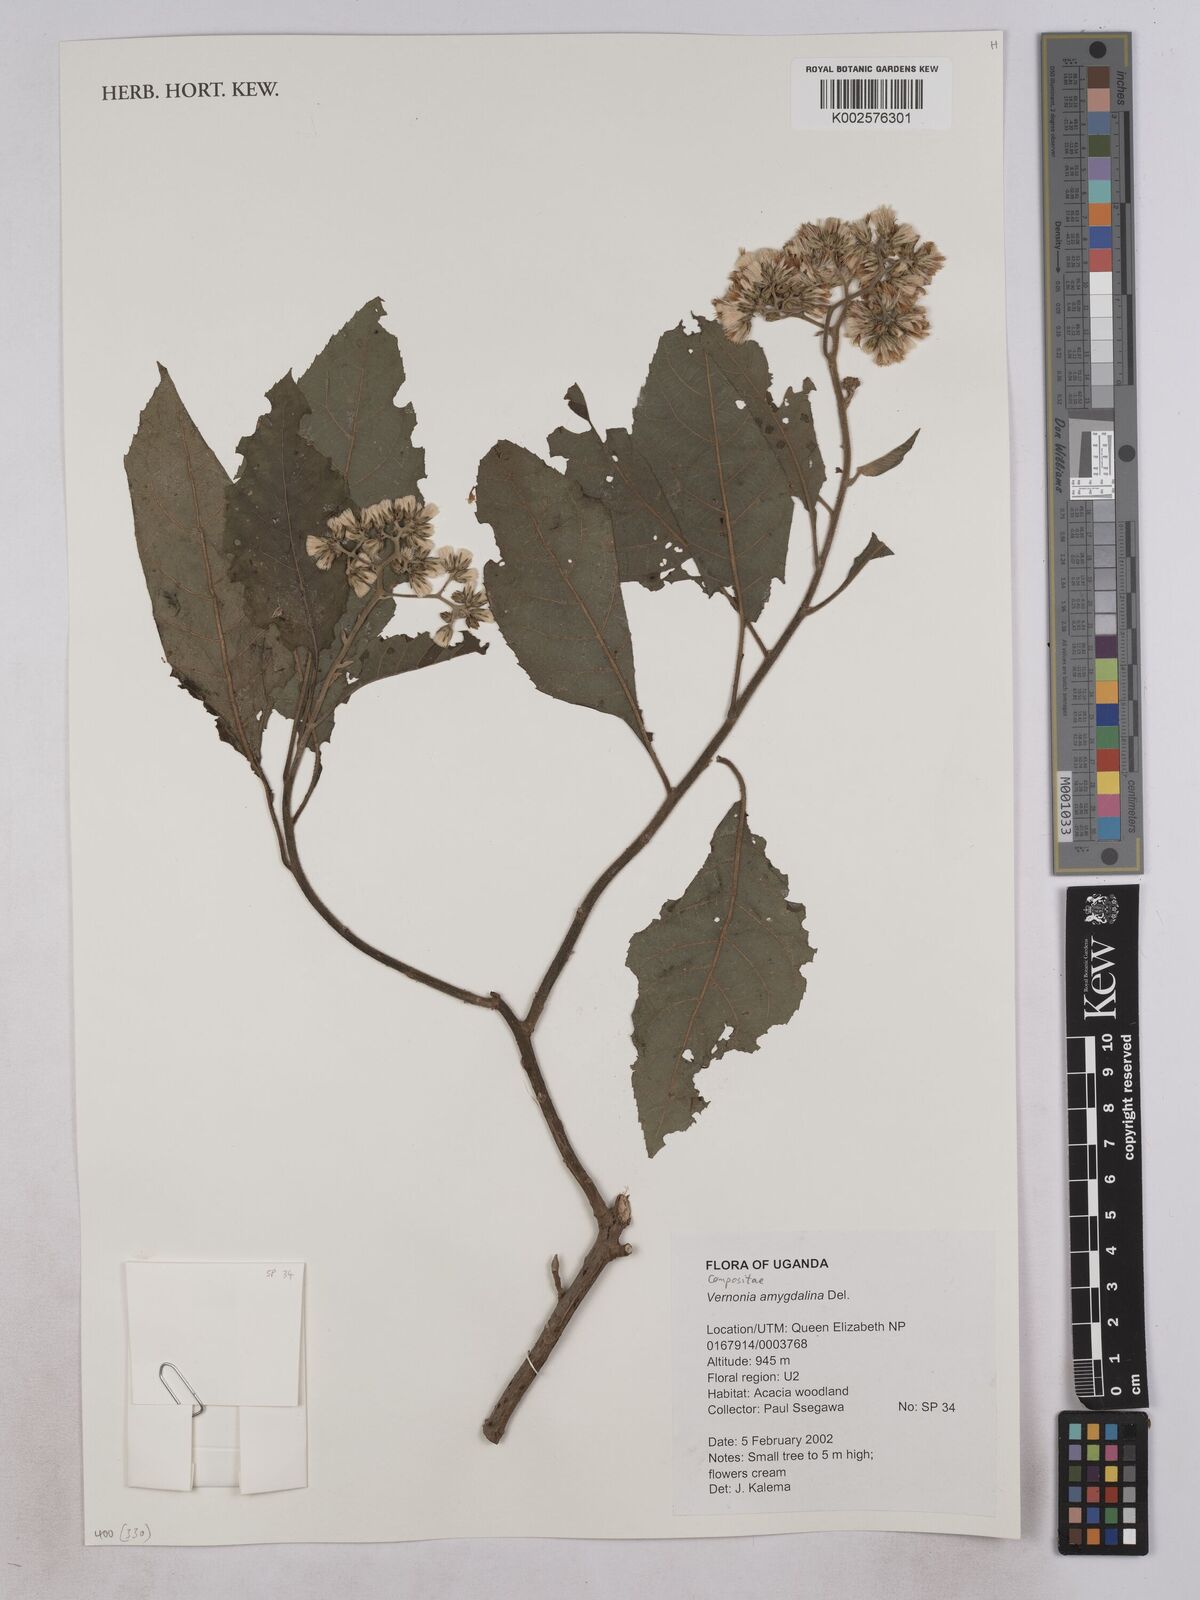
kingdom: Plantae
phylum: Tracheophyta
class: Magnoliopsida
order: Asterales
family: Asteraceae
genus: Gymnanthemum
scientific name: Gymnanthemum amygdalinum
